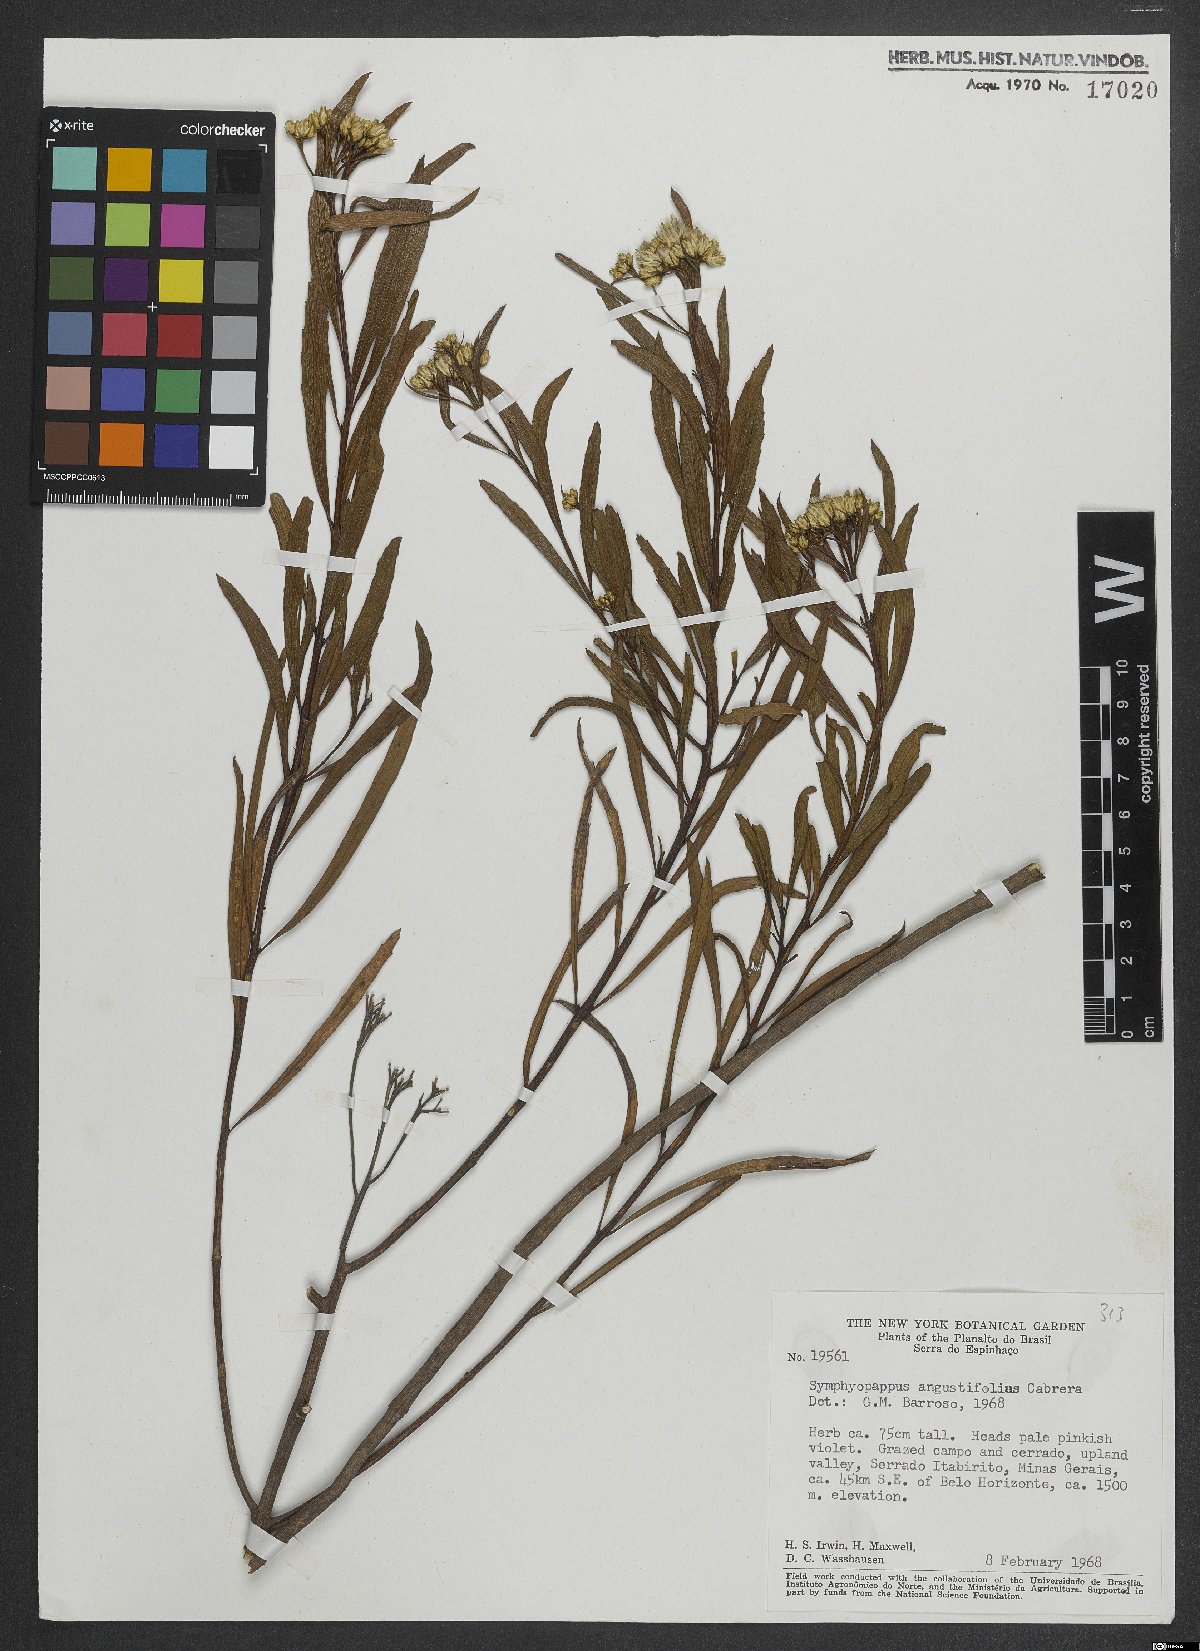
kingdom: Plantae
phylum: Tracheophyta
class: Magnoliopsida
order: Asterales
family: Asteraceae
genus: Symphyopappus
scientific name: Symphyopappus angustifolius
